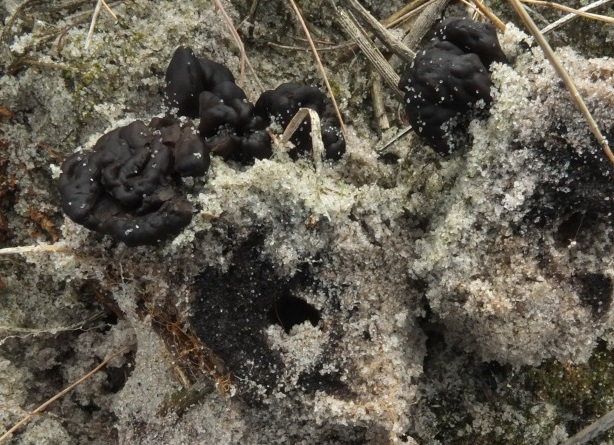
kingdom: Fungi
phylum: Ascomycota
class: Geoglossomycetes
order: Geoglossales
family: Geoglossaceae
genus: Sabuloglossum
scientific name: Sabuloglossum arenarium
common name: klit-jordtunge
